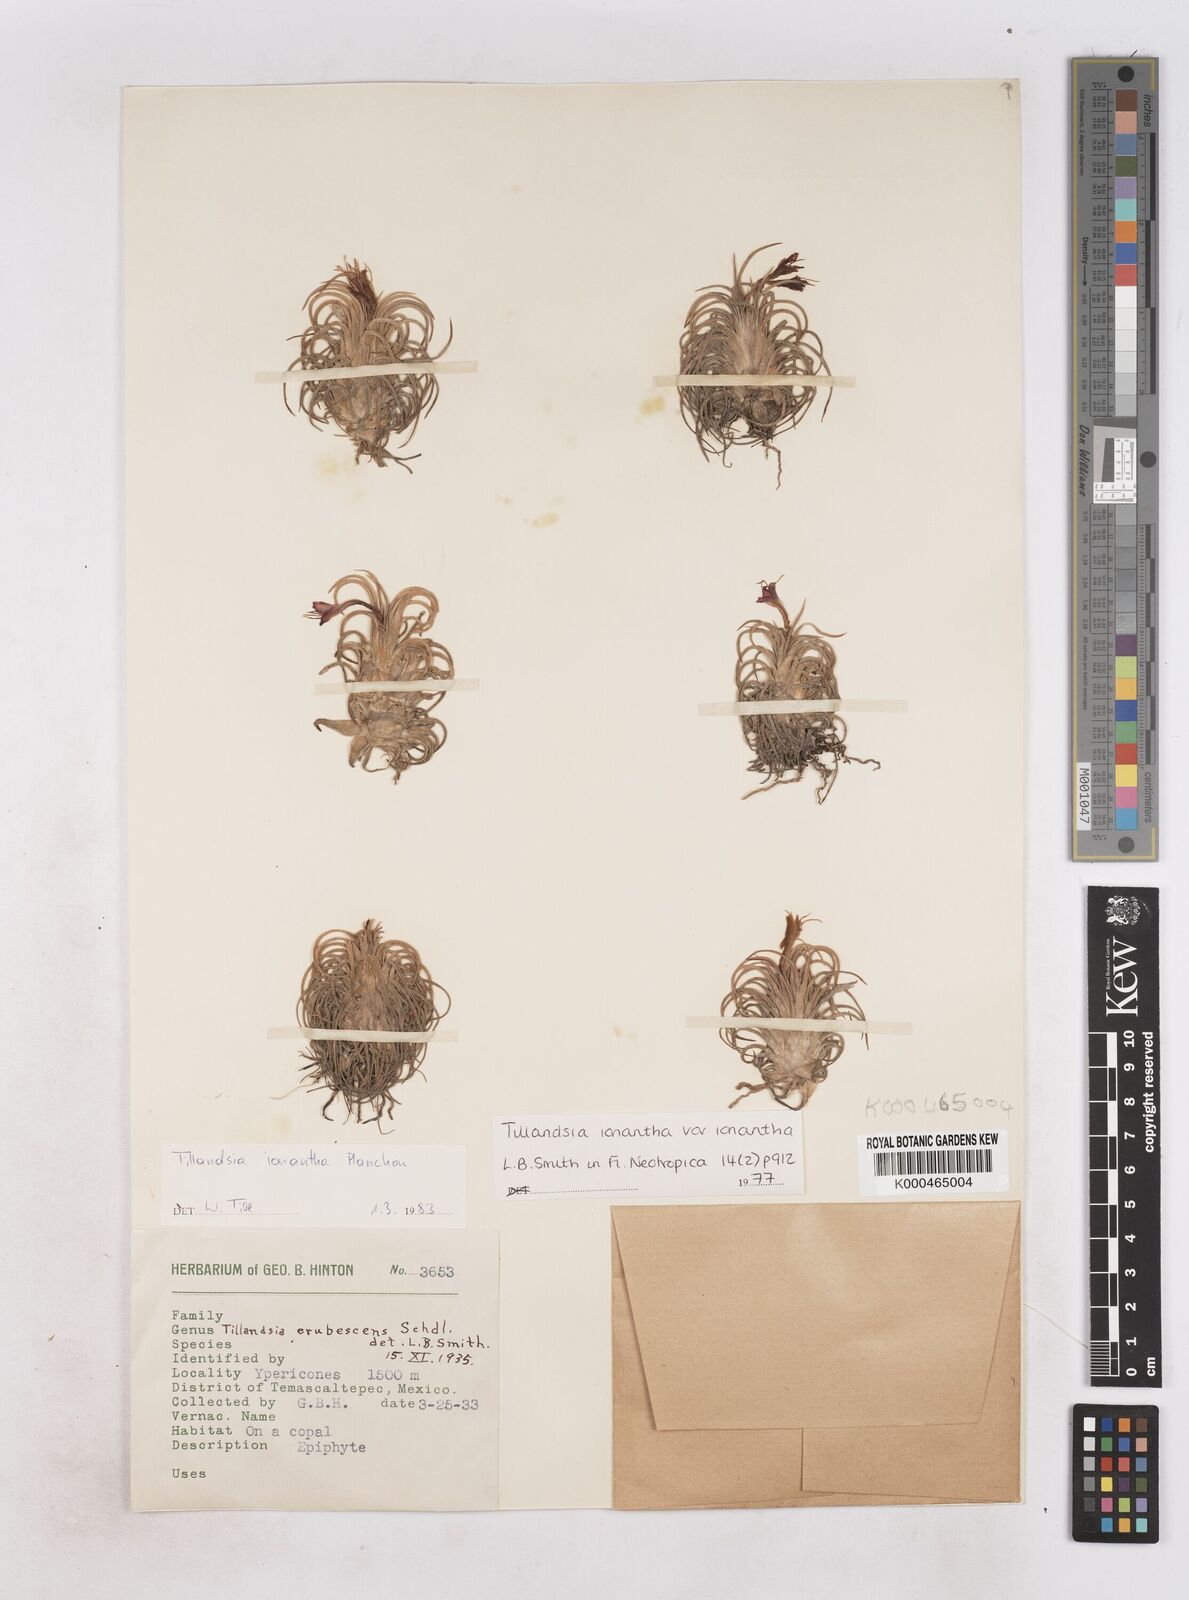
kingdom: Plantae
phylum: Tracheophyta
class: Liliopsida
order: Poales
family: Bromeliaceae
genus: Tillandsia
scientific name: Tillandsia ionantha
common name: Sky plant
